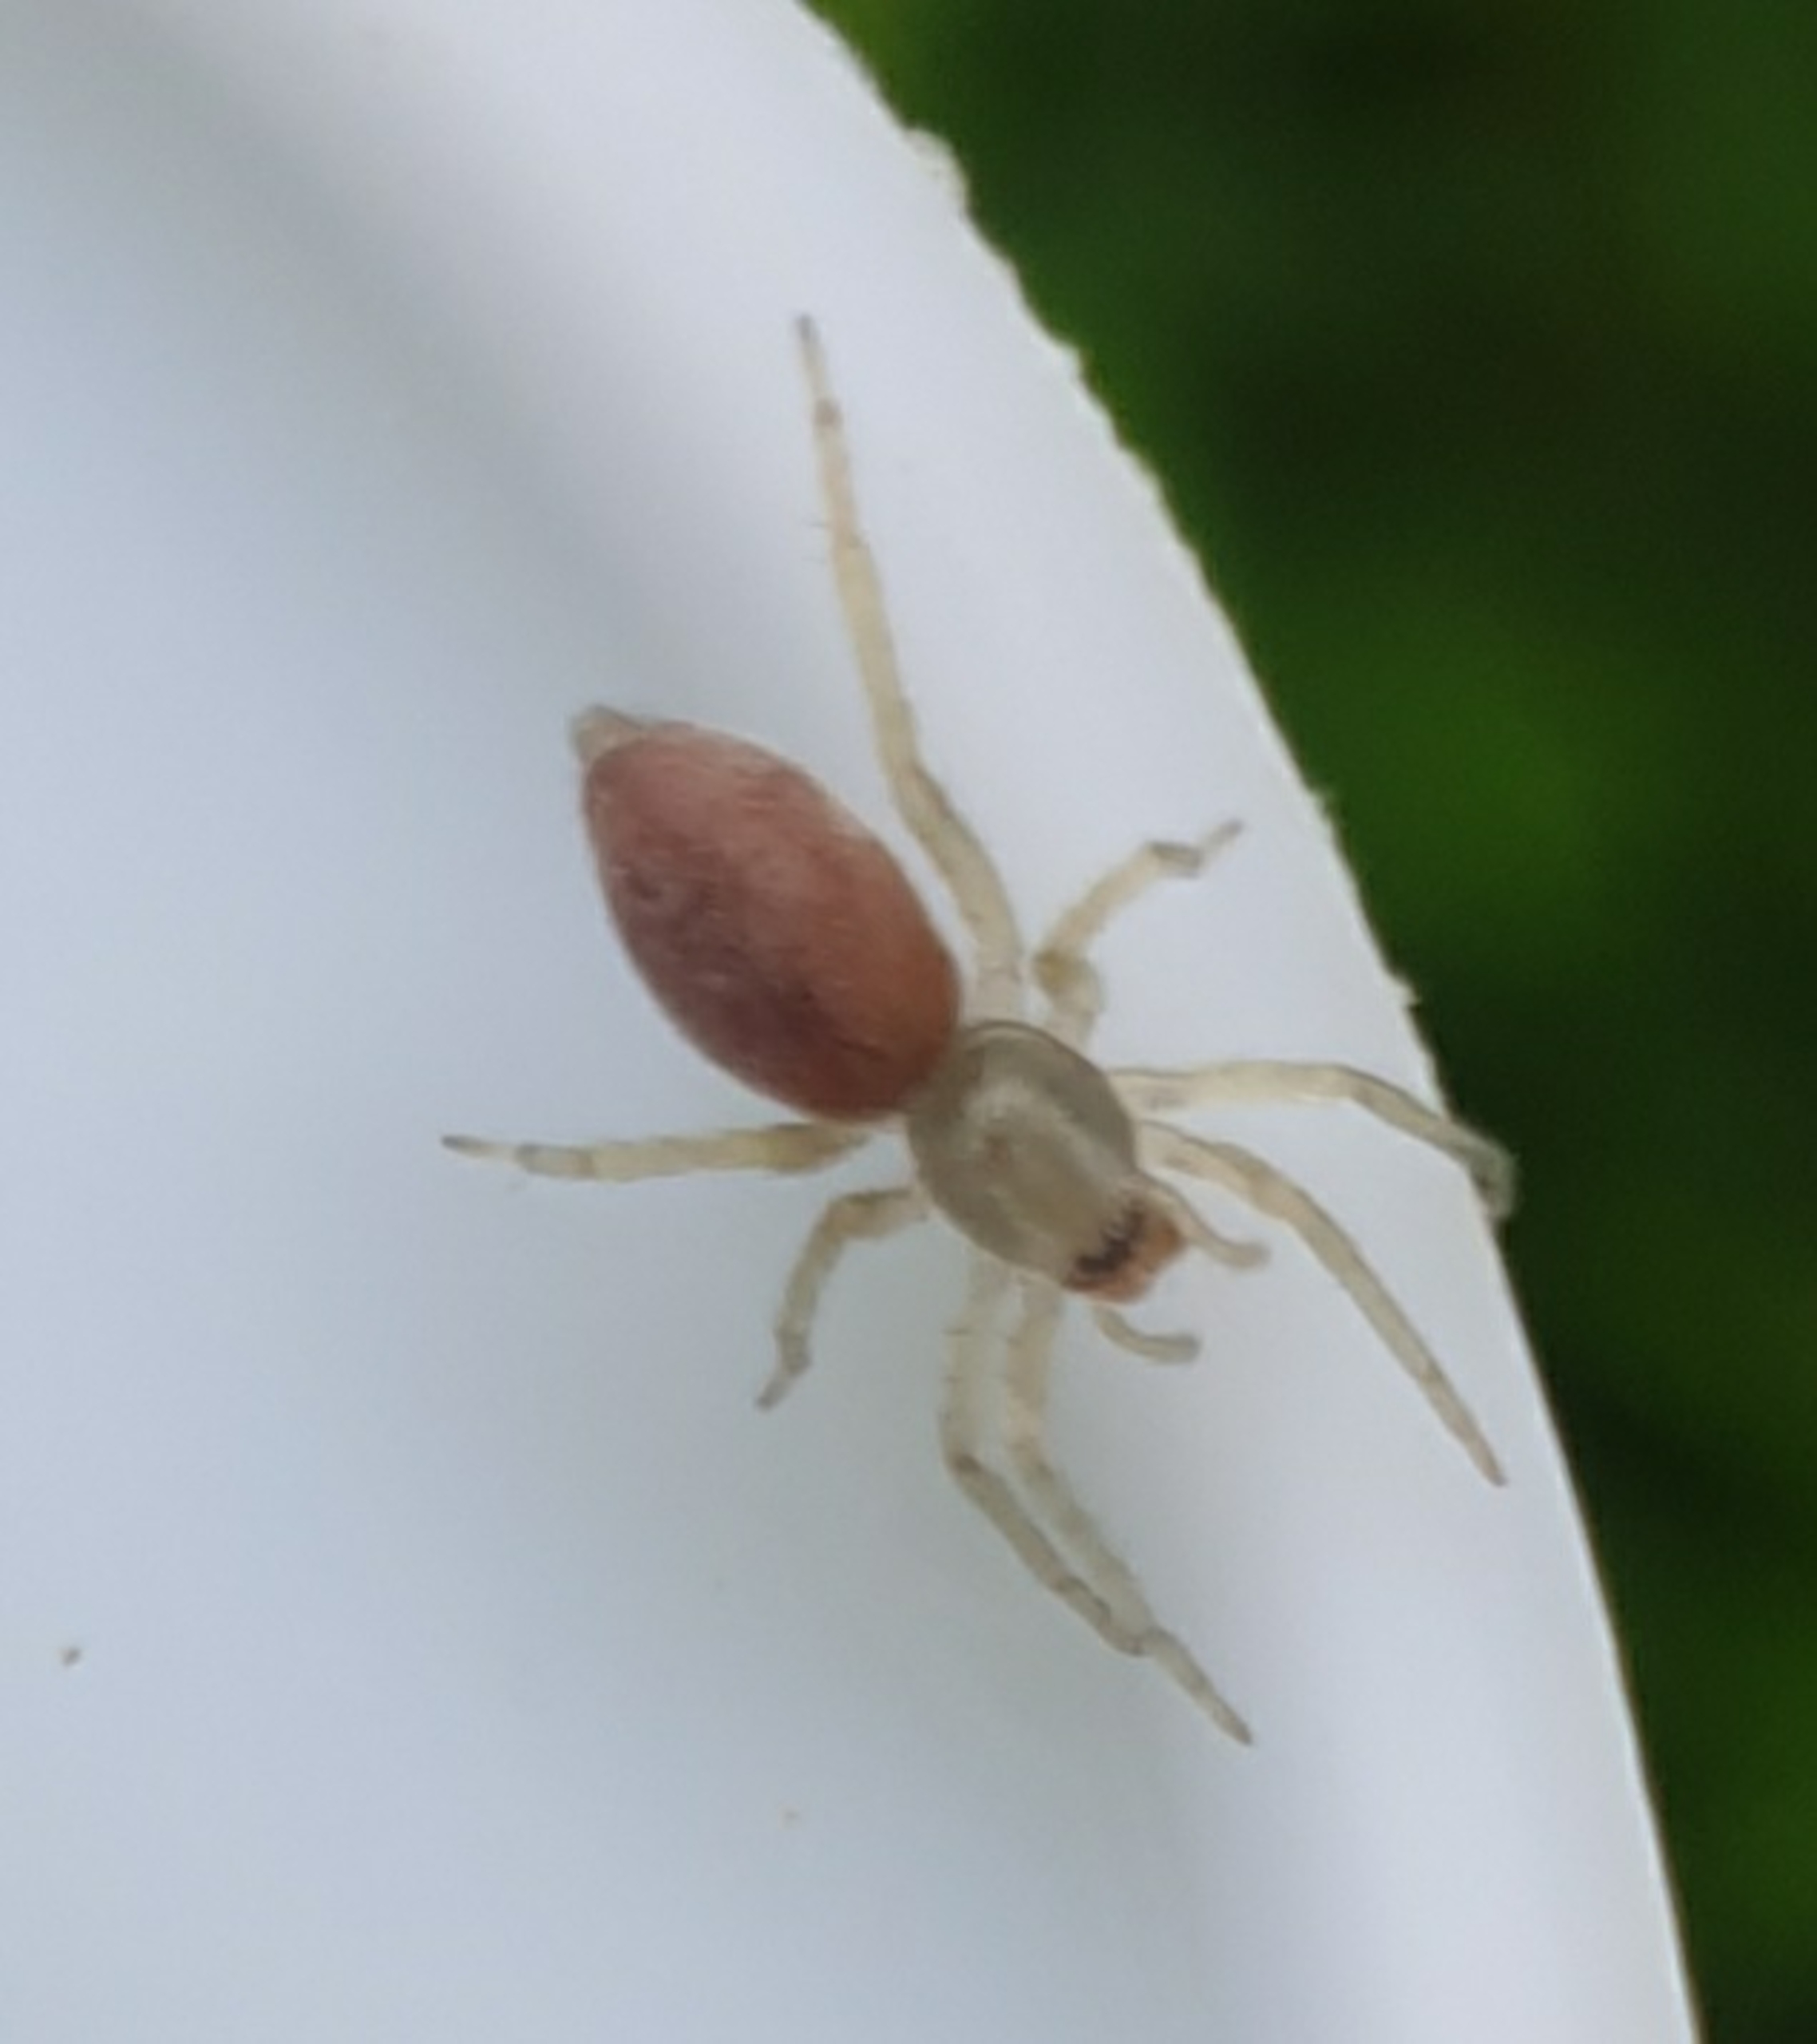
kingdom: Animalia
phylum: Arthropoda
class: Arachnida
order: Araneae
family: Clubionidae
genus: Clubiona
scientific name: Clubiona
